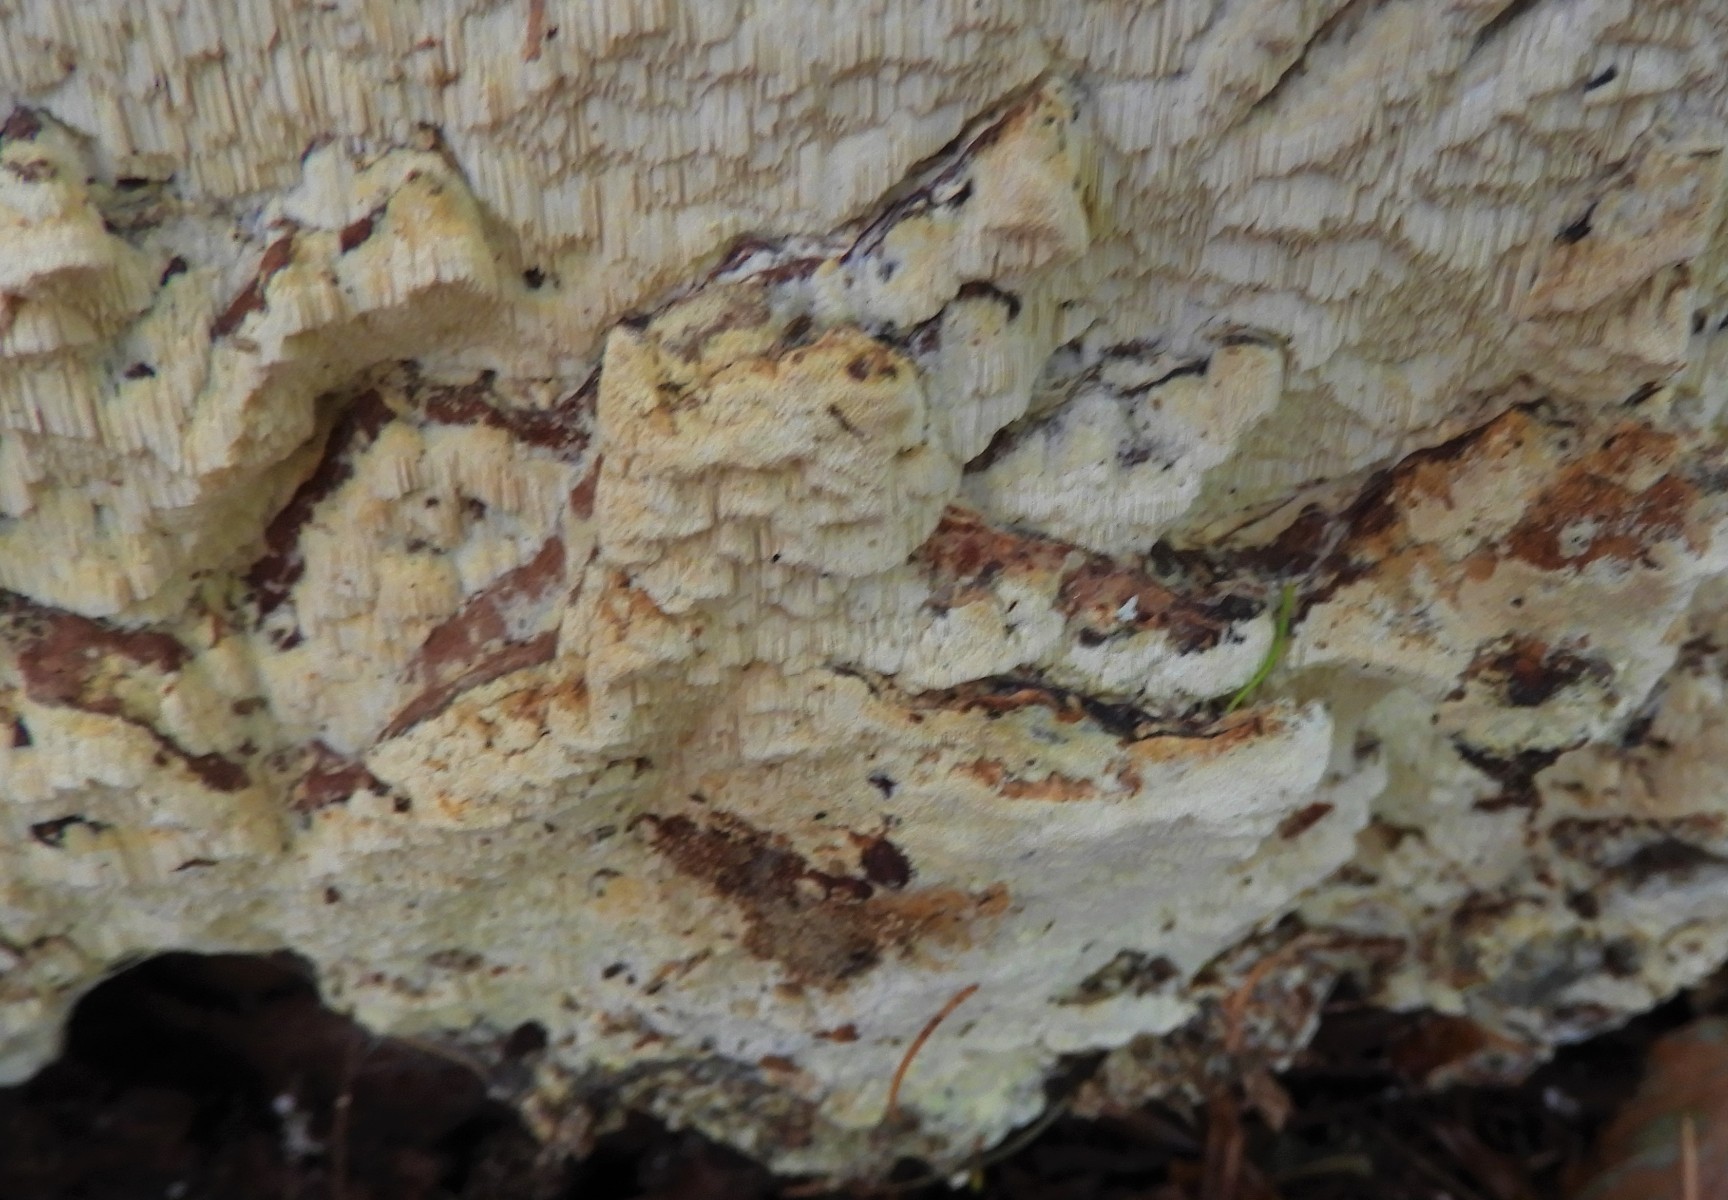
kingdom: Fungi
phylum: Basidiomycota
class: Agaricomycetes
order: Polyporales
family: Fomitopsidaceae
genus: Daedalea
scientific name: Daedalea xantha
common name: gul sejporesvamp
